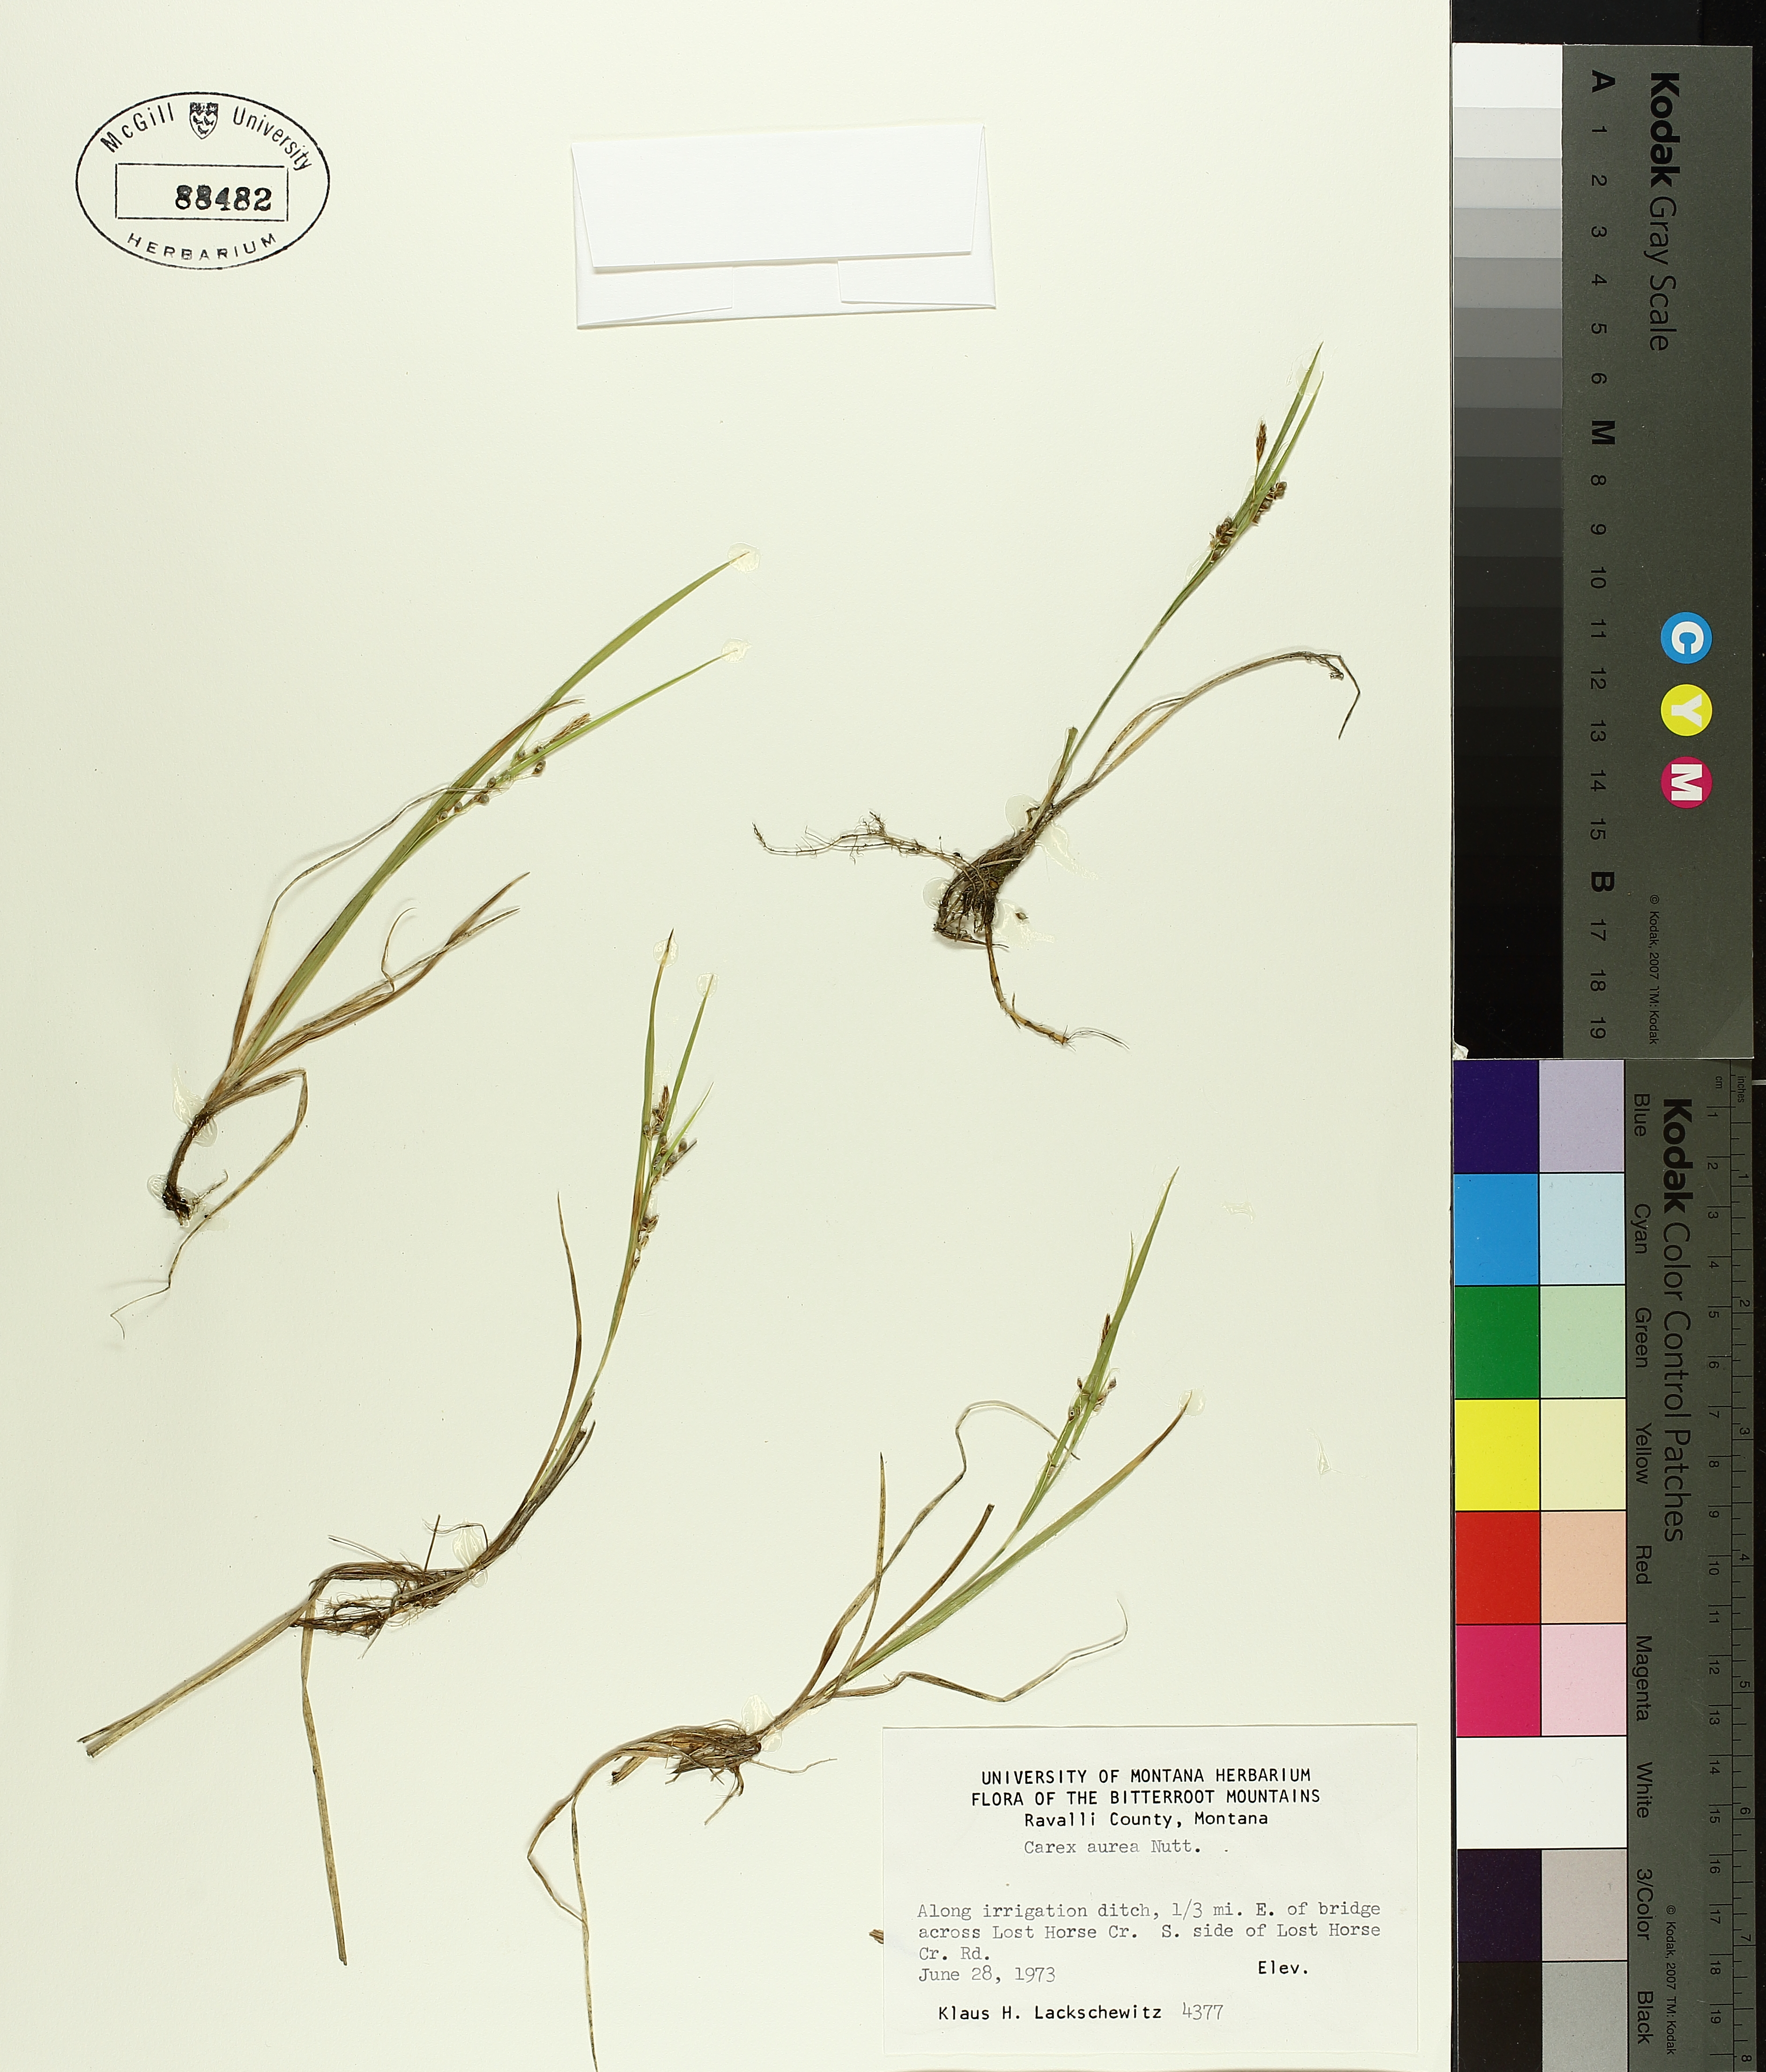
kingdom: Plantae
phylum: Tracheophyta
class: Liliopsida
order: Poales
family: Cyperaceae
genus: Carex
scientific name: Carex aurea
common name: Golden sedge
